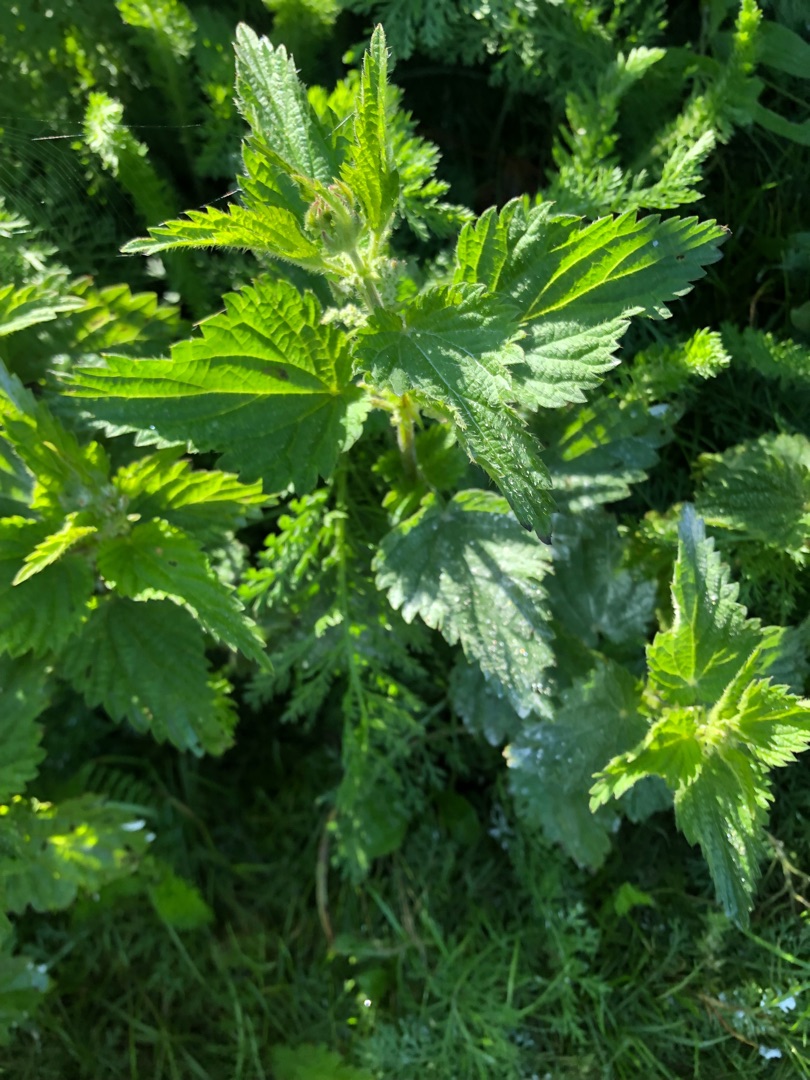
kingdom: Plantae
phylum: Tracheophyta
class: Magnoliopsida
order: Rosales
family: Urticaceae
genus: Urtica
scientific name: Urtica dioica
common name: Stor nælde
